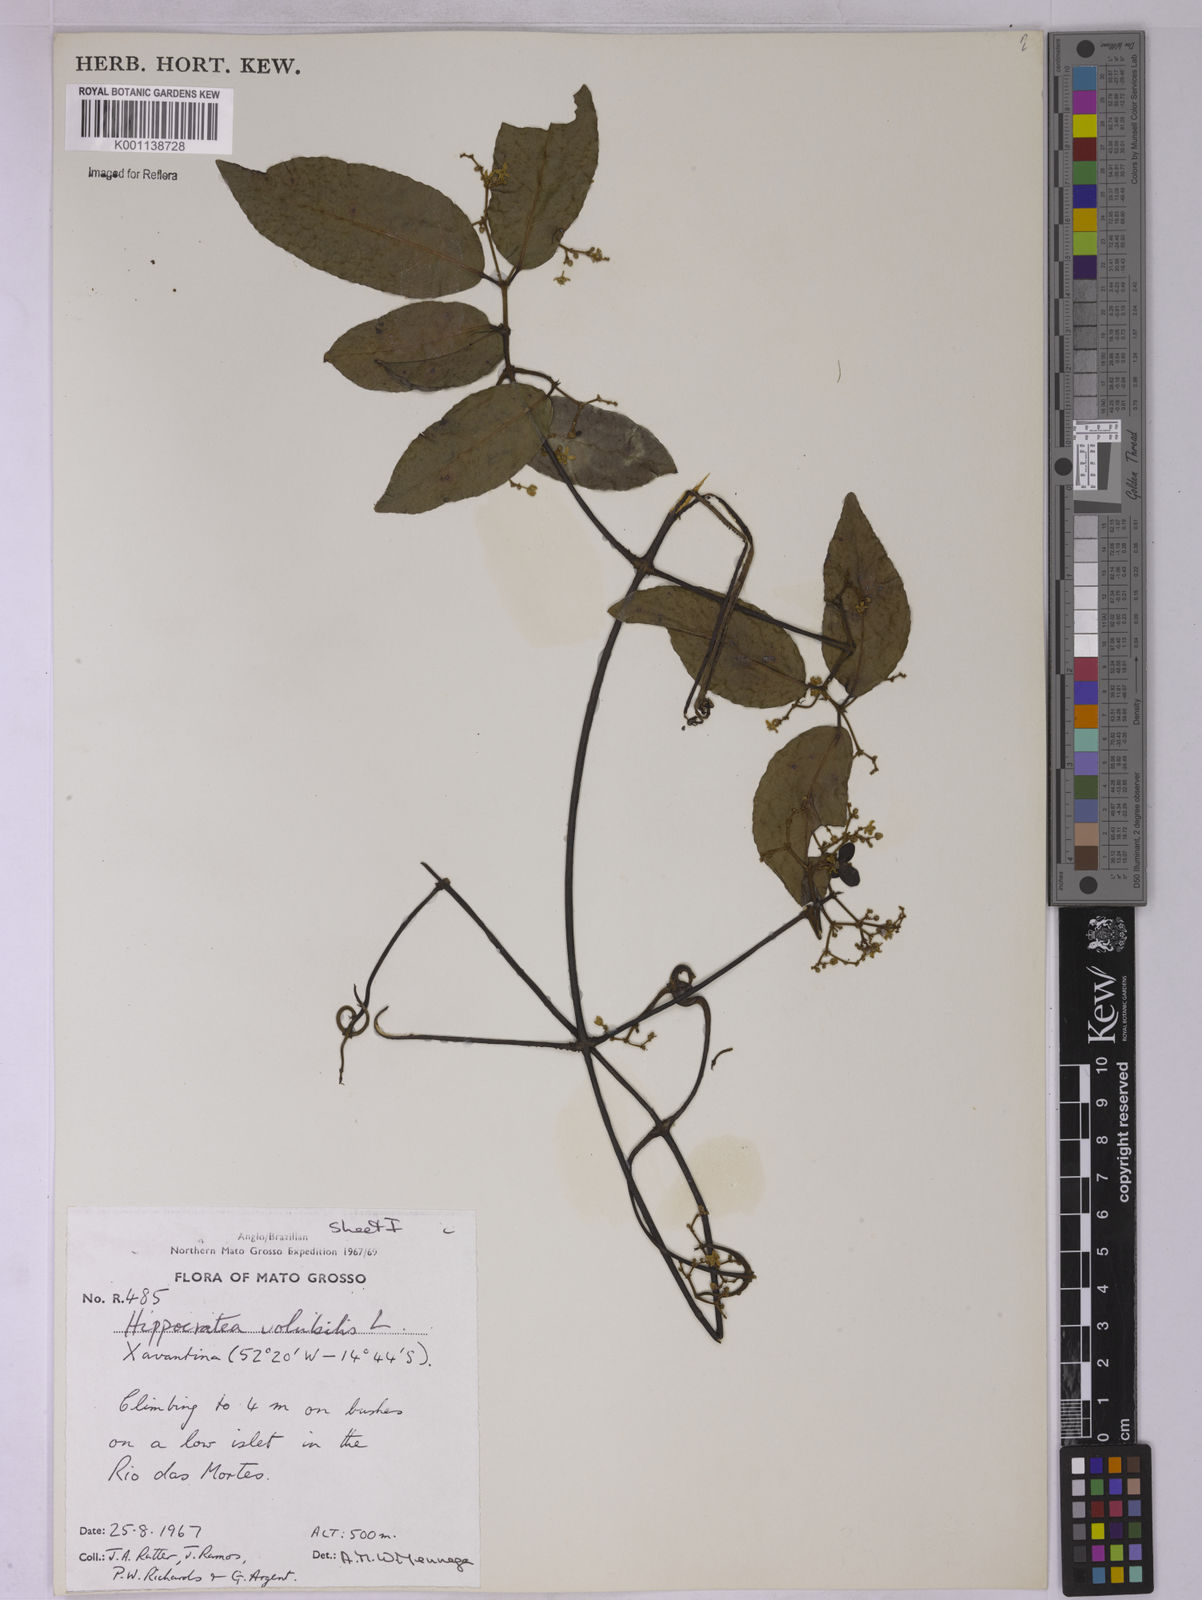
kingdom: Plantae
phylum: Tracheophyta
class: Magnoliopsida
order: Celastrales
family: Celastraceae
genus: Hippocratea
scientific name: Hippocratea volubilis
